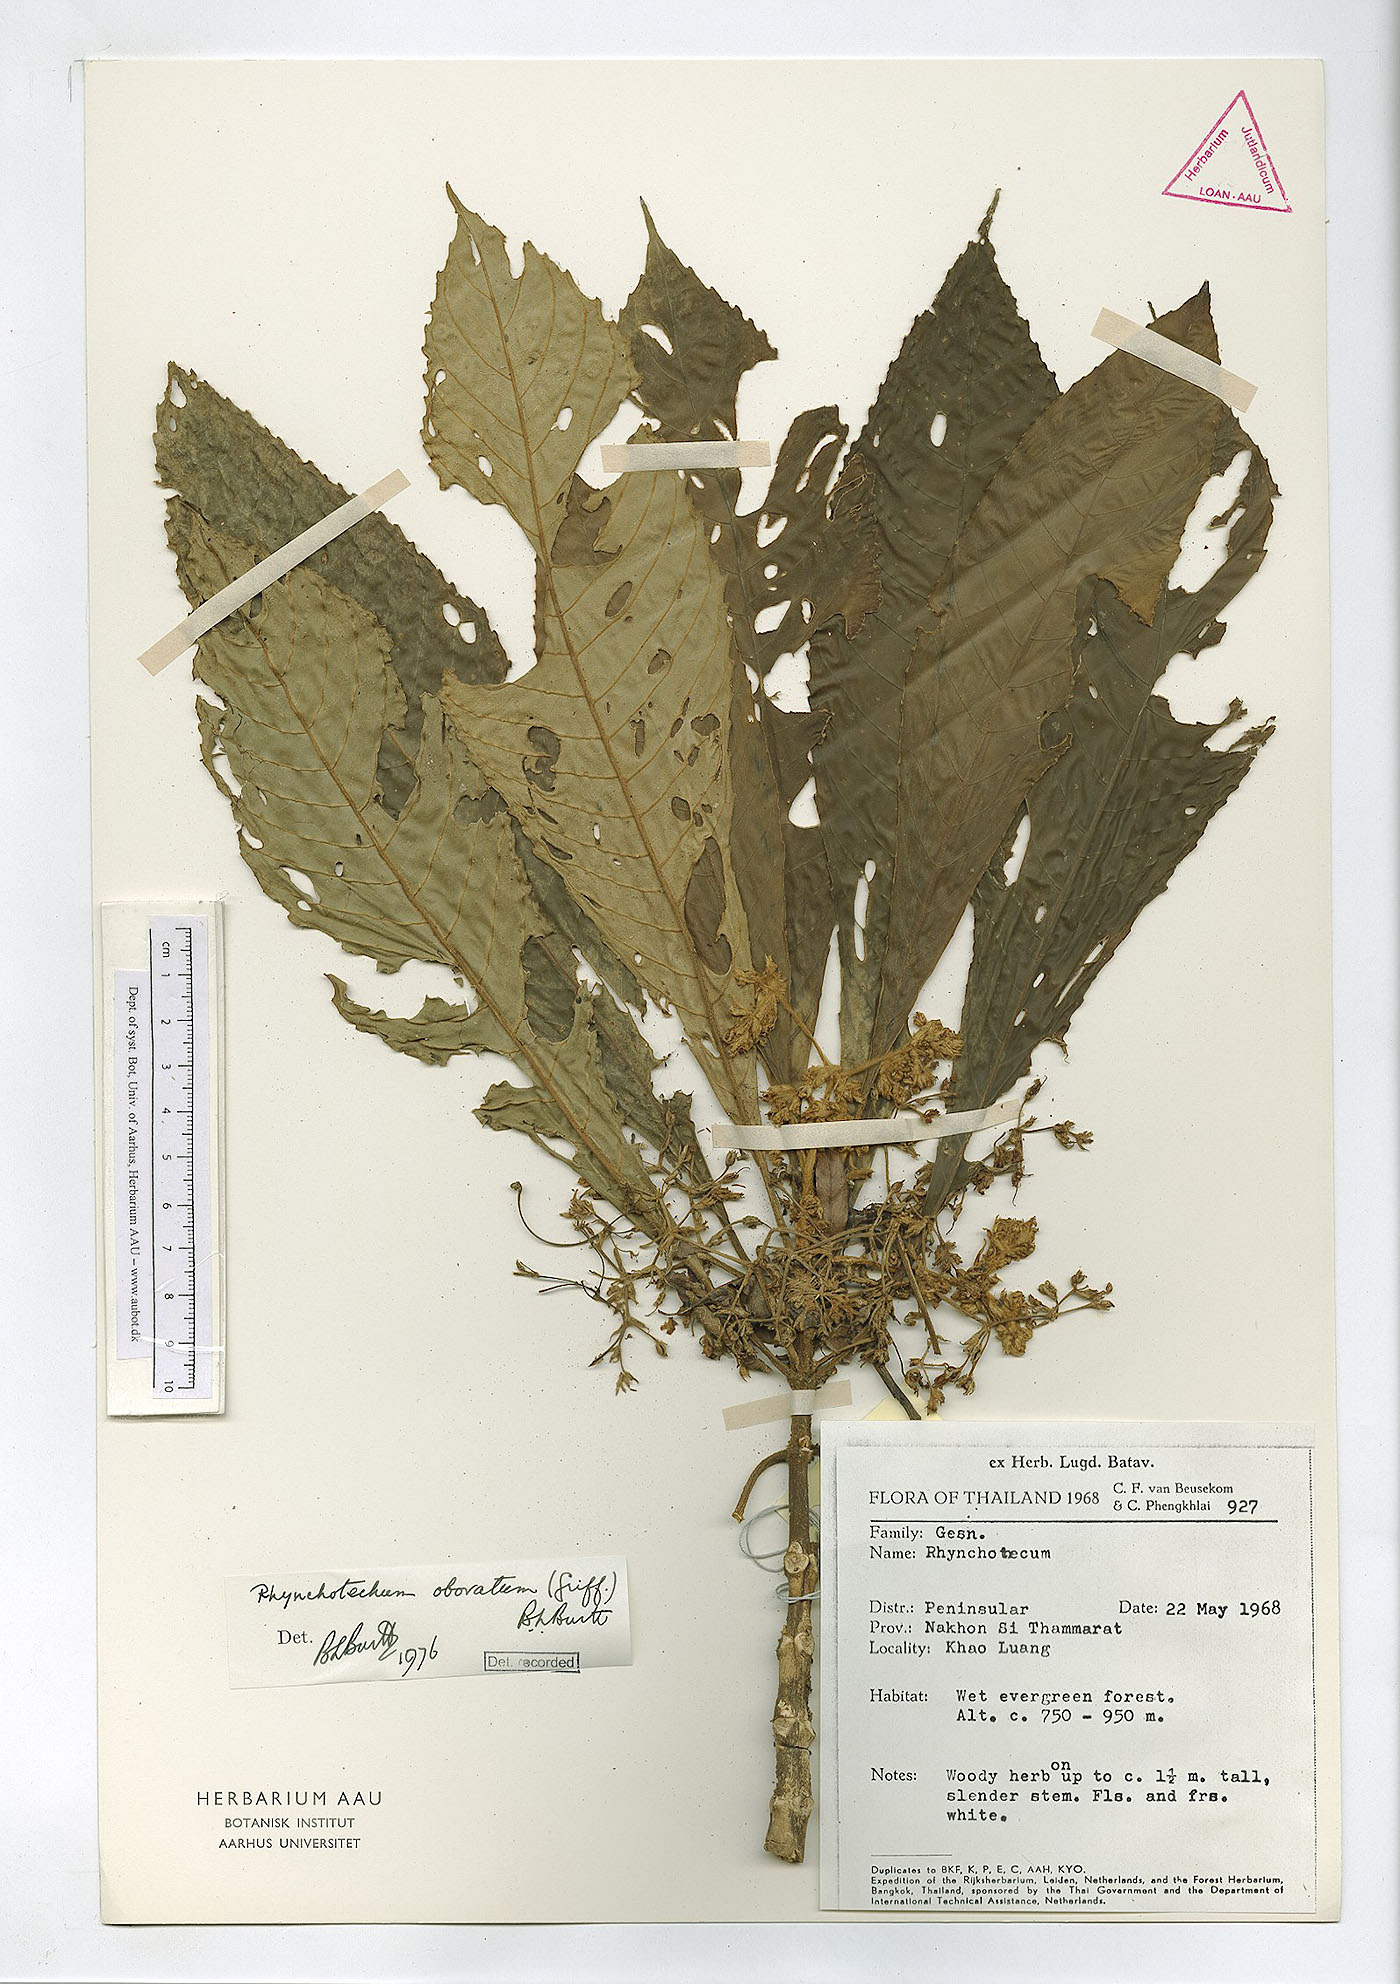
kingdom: Plantae
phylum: Tracheophyta
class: Magnoliopsida
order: Lamiales
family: Gesneriaceae
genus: Rhynchotechum
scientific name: Rhynchotechum obovatum
